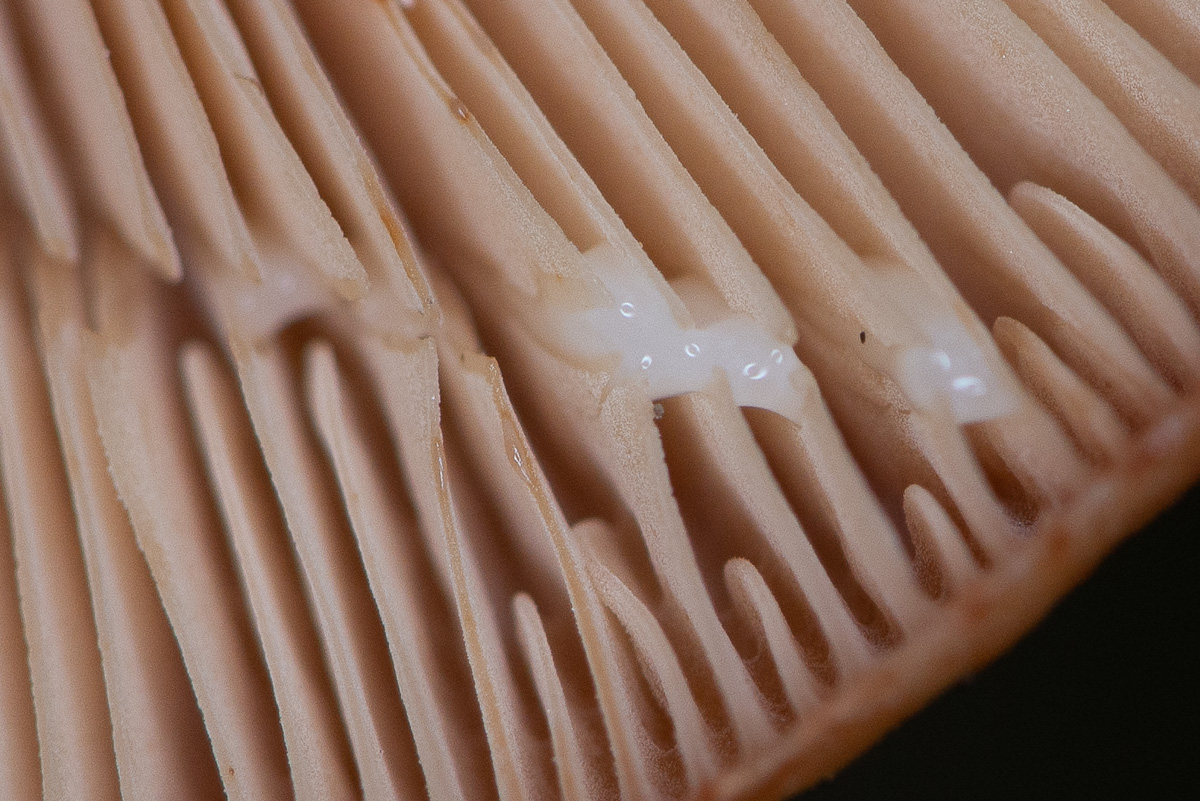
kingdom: Fungi
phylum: Basidiomycota
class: Agaricomycetes
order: Russulales
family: Russulaceae
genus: Lactarius
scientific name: Lactarius quietus
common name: ege-mælkehat
